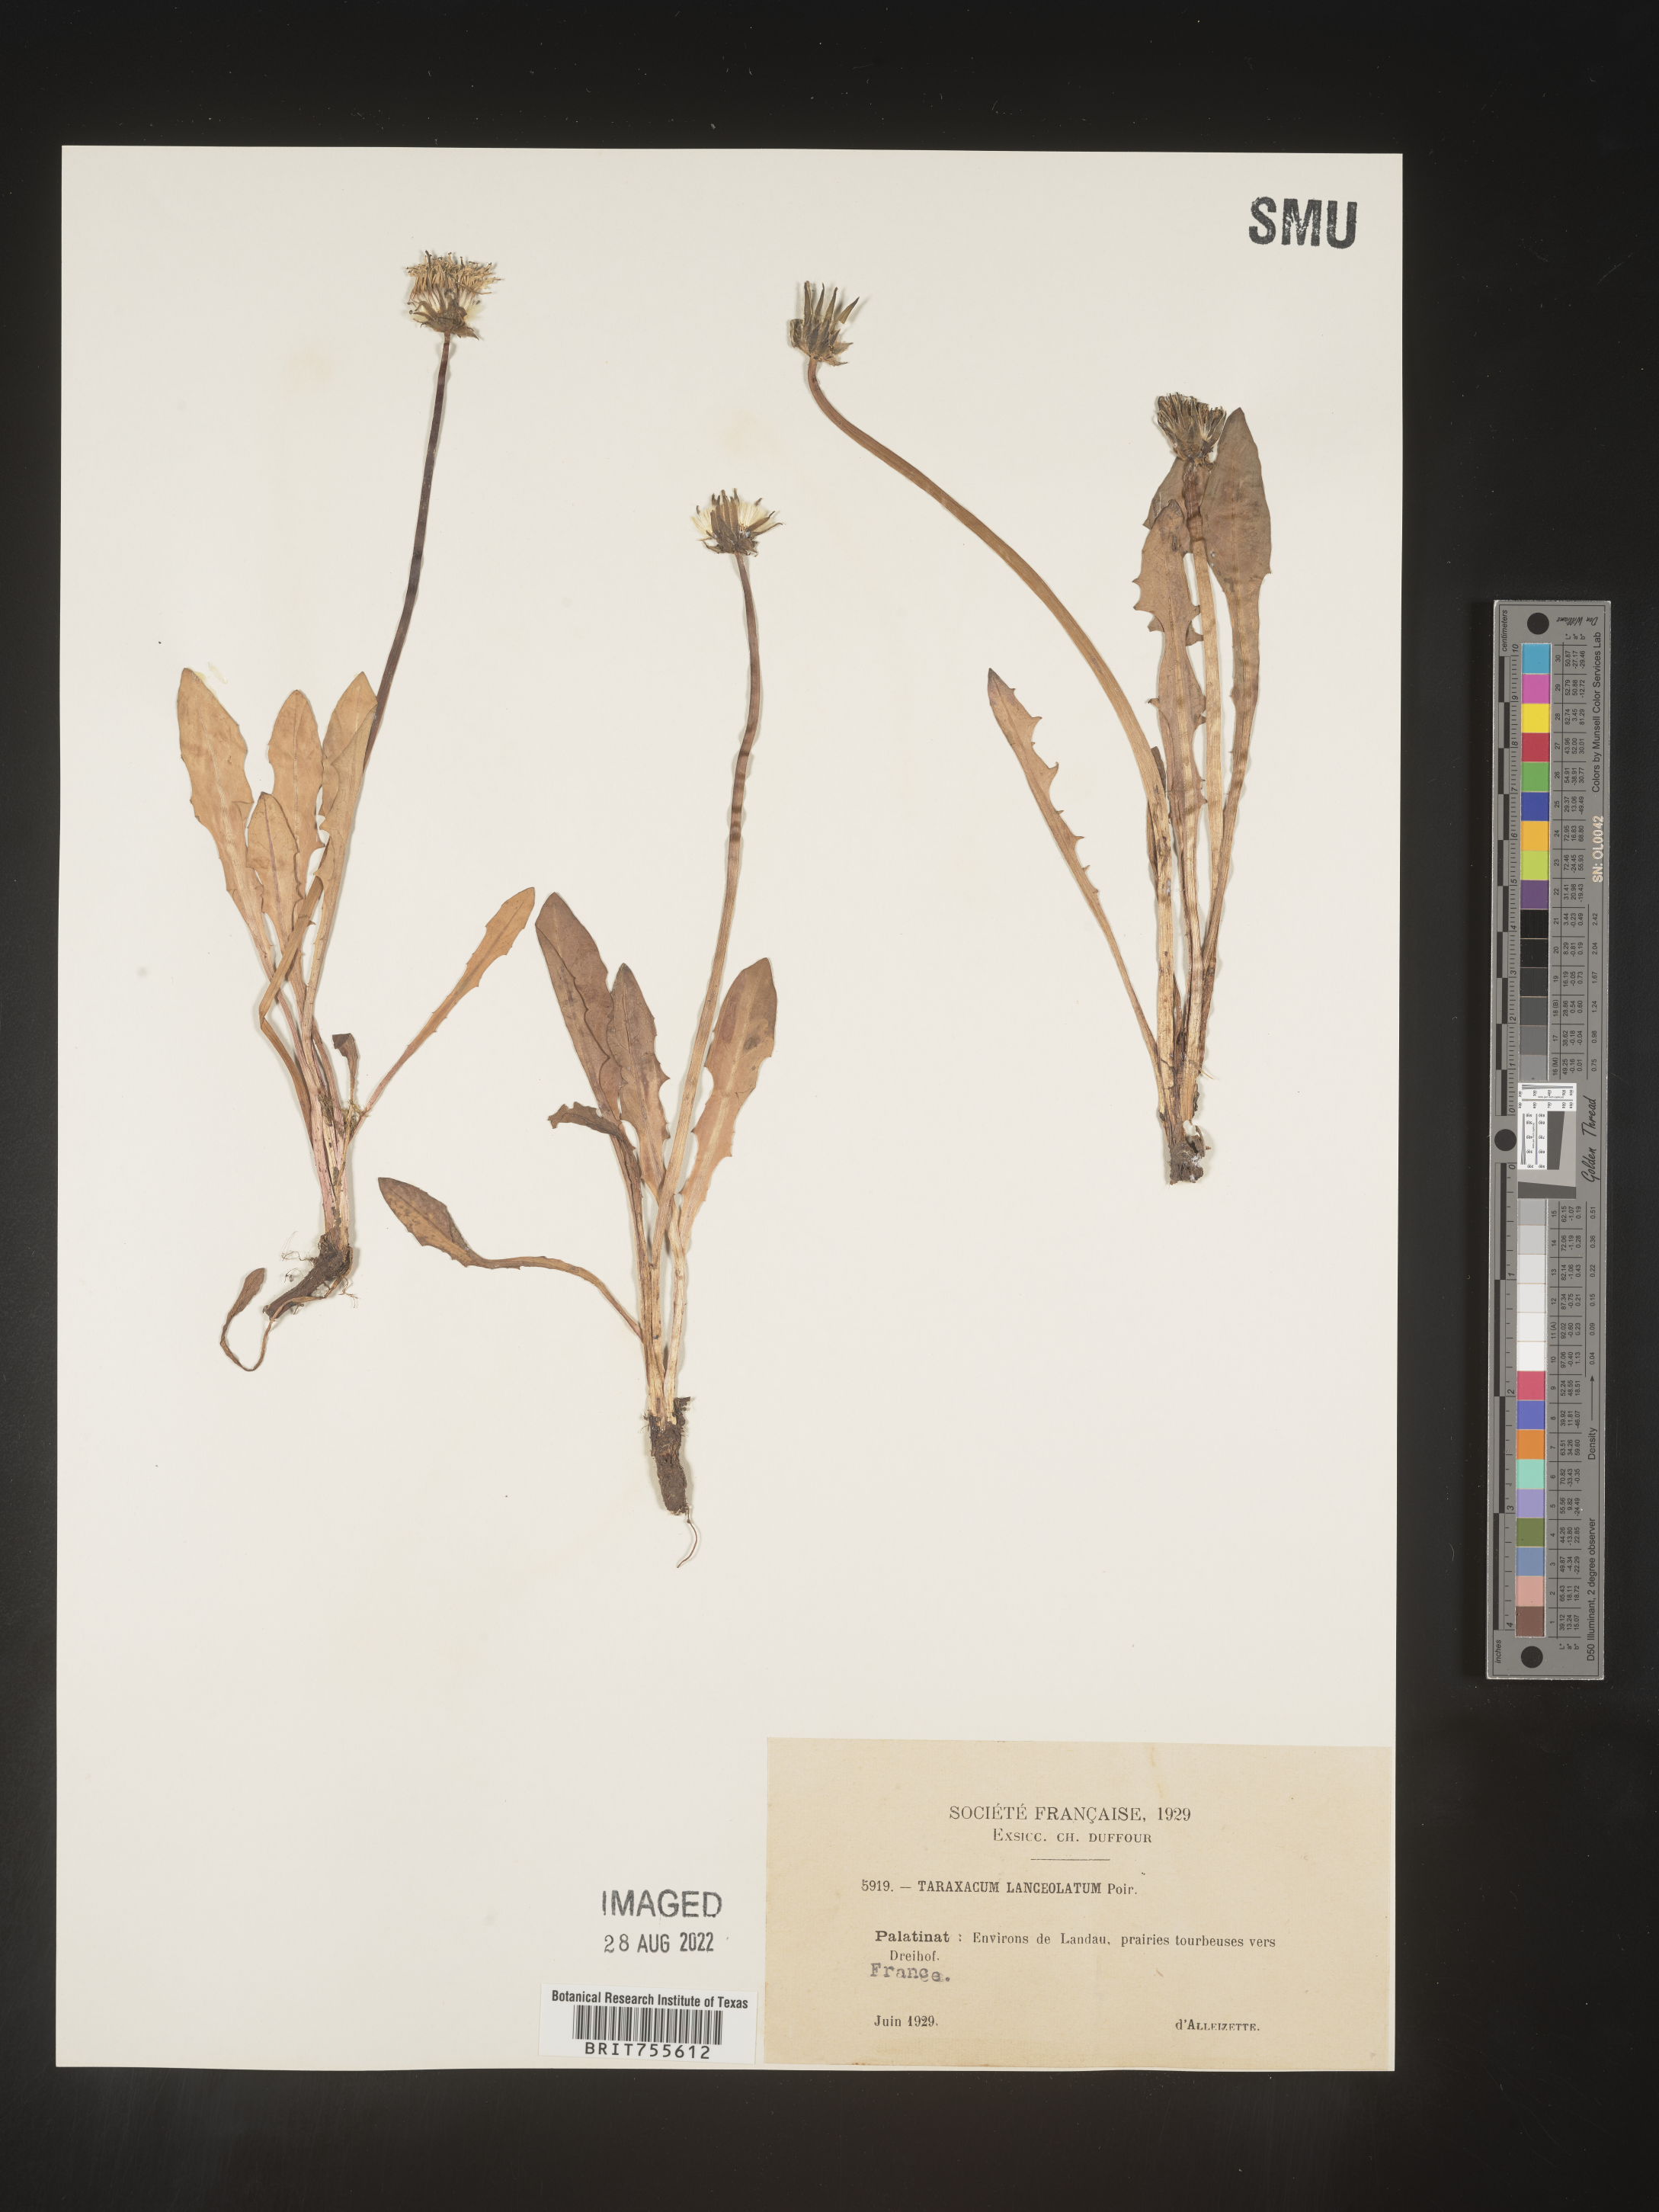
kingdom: Plantae
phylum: Tracheophyta
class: Magnoliopsida
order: Asterales
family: Asteraceae
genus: Taraxacum
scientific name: Taraxacum
